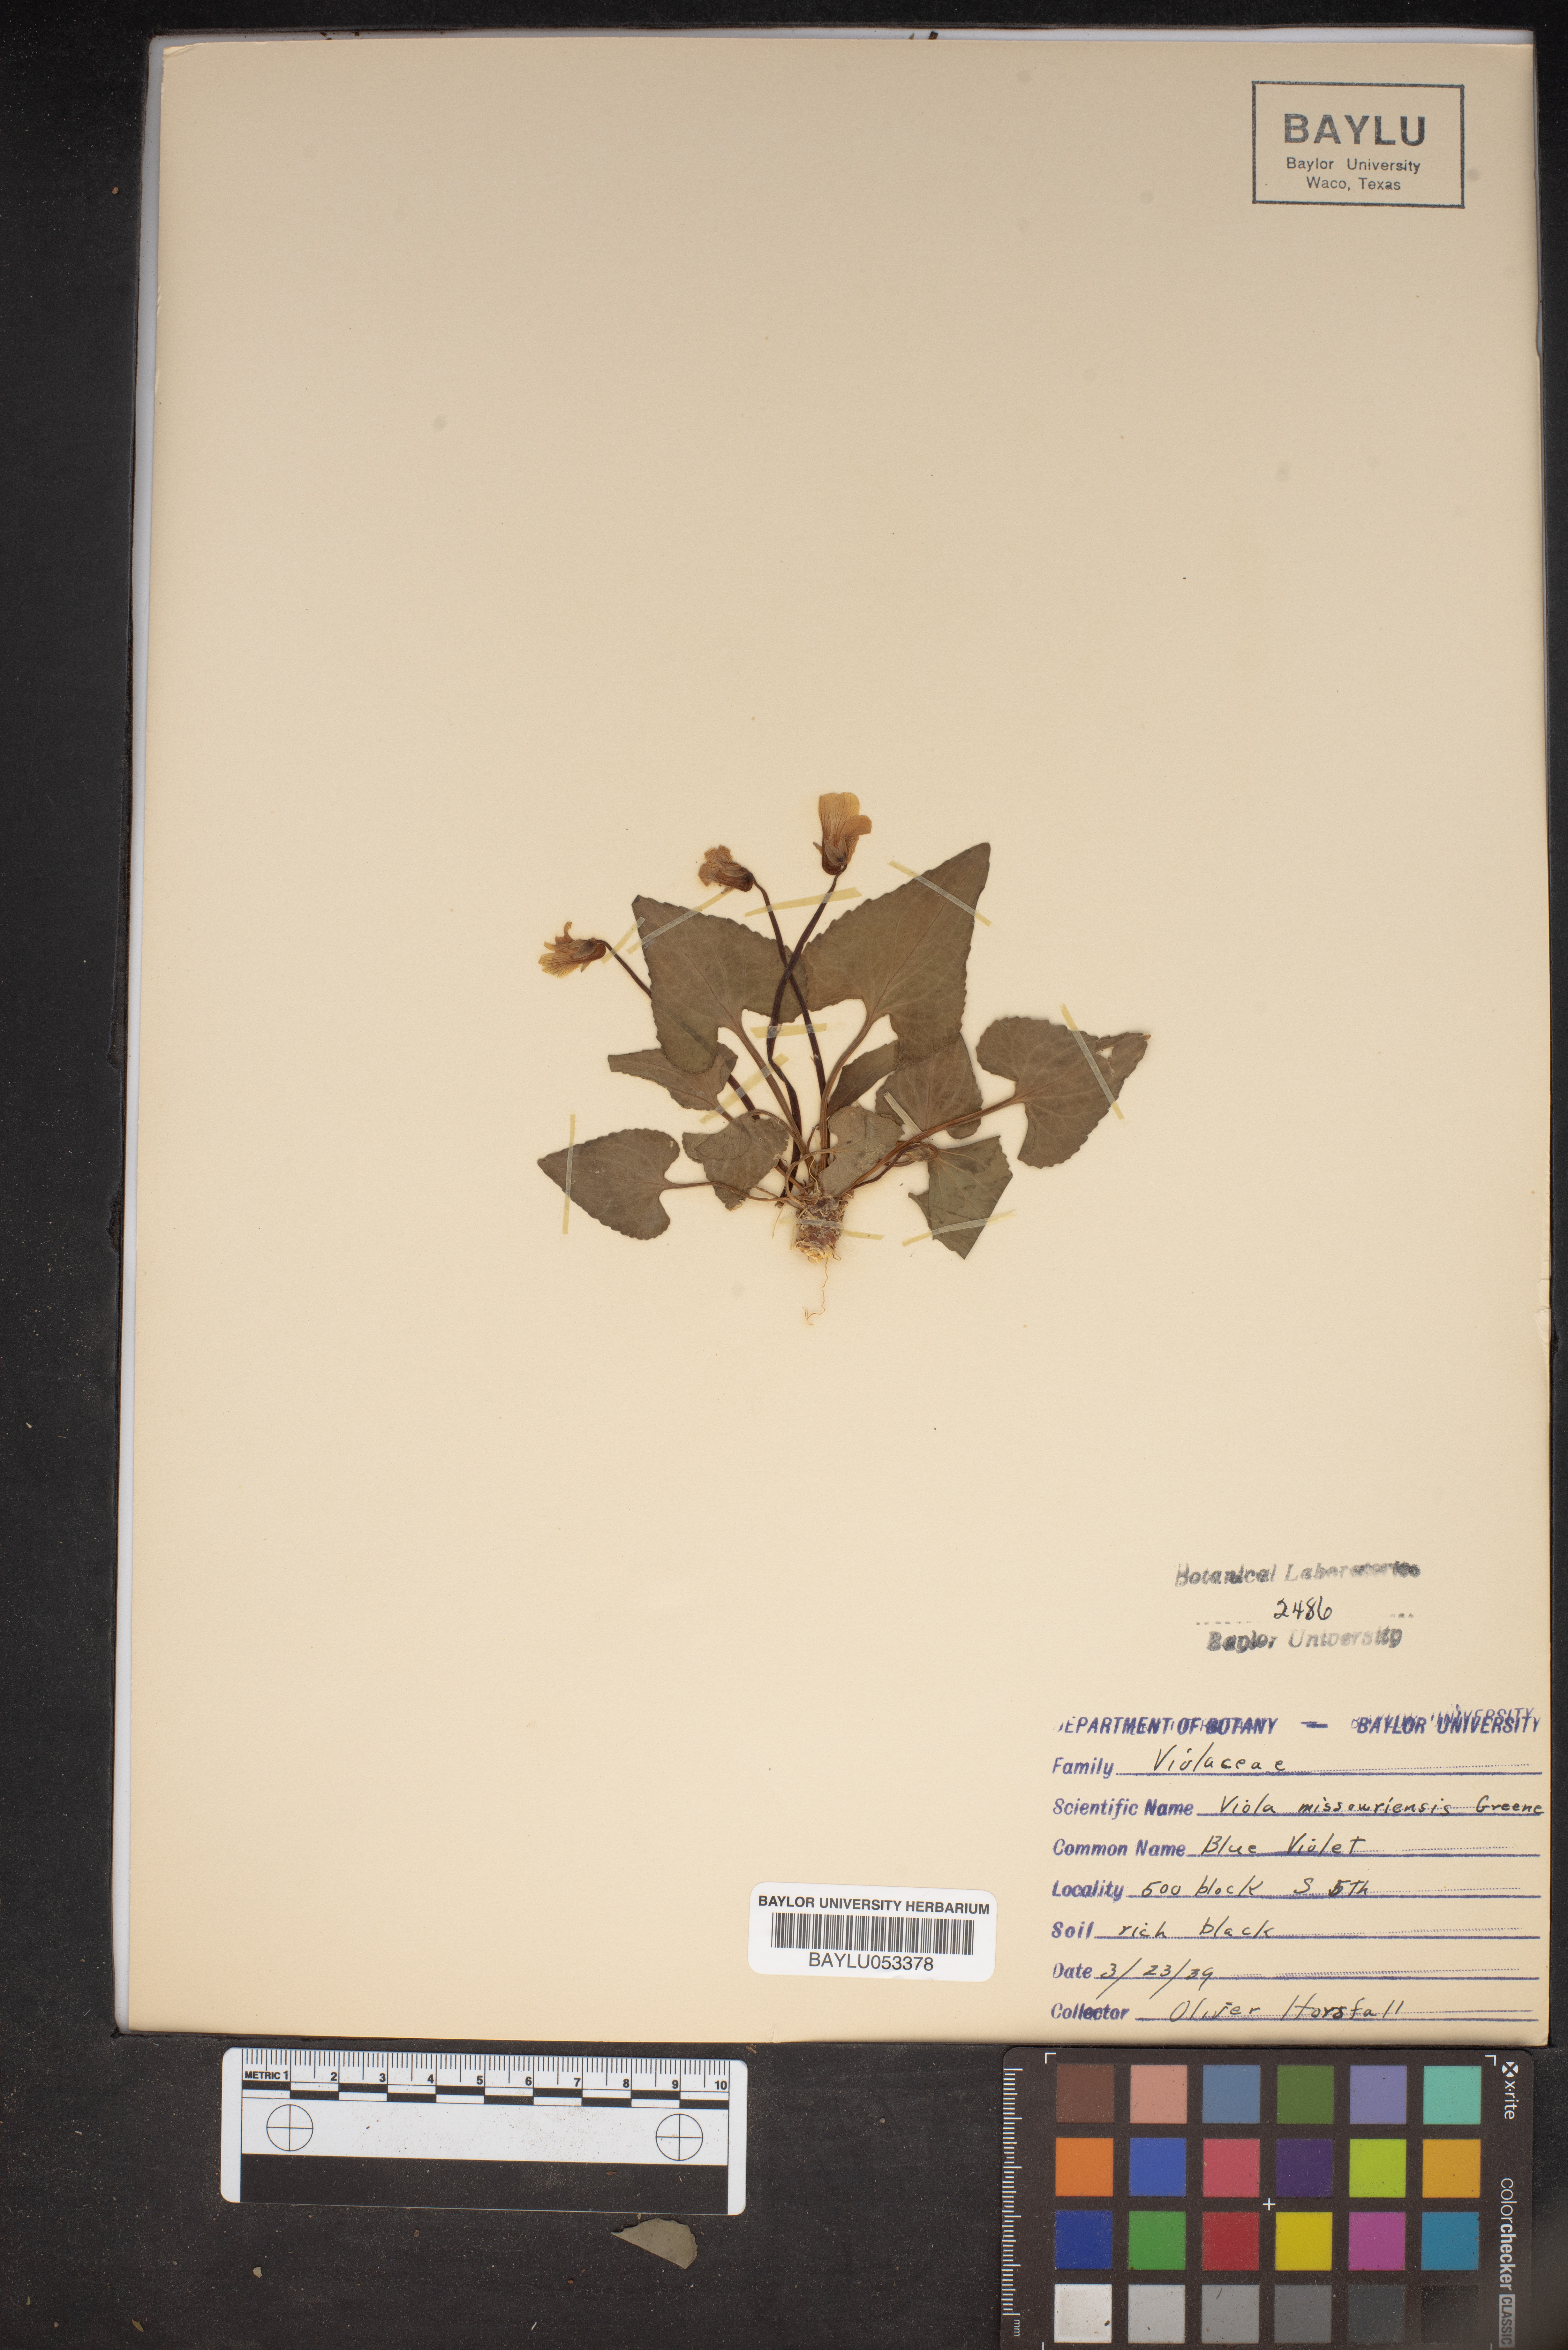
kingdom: Plantae
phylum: Tracheophyta
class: Magnoliopsida
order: Malpighiales
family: Violaceae
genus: Viola
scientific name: Viola missouriensis
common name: Missouri violet
